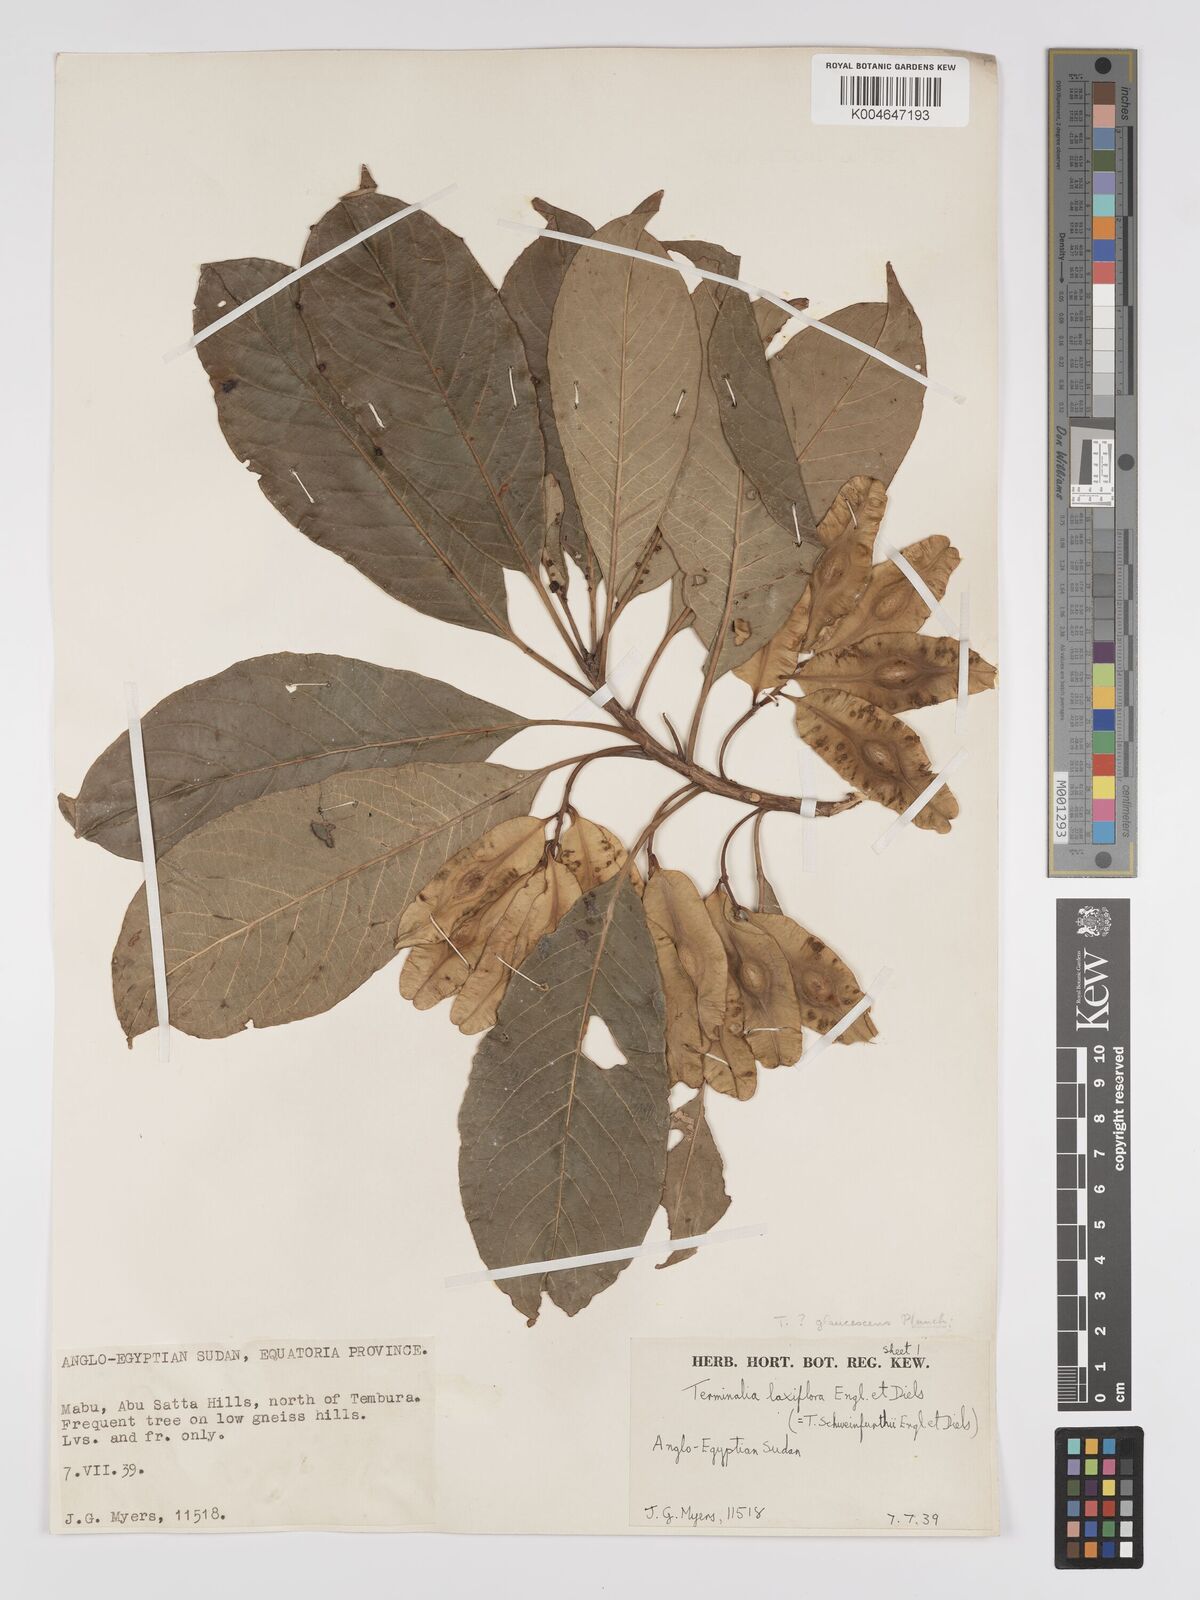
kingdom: Plantae
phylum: Tracheophyta
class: Magnoliopsida
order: Myrtales
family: Combretaceae
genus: Terminalia
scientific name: Terminalia schimperiana
